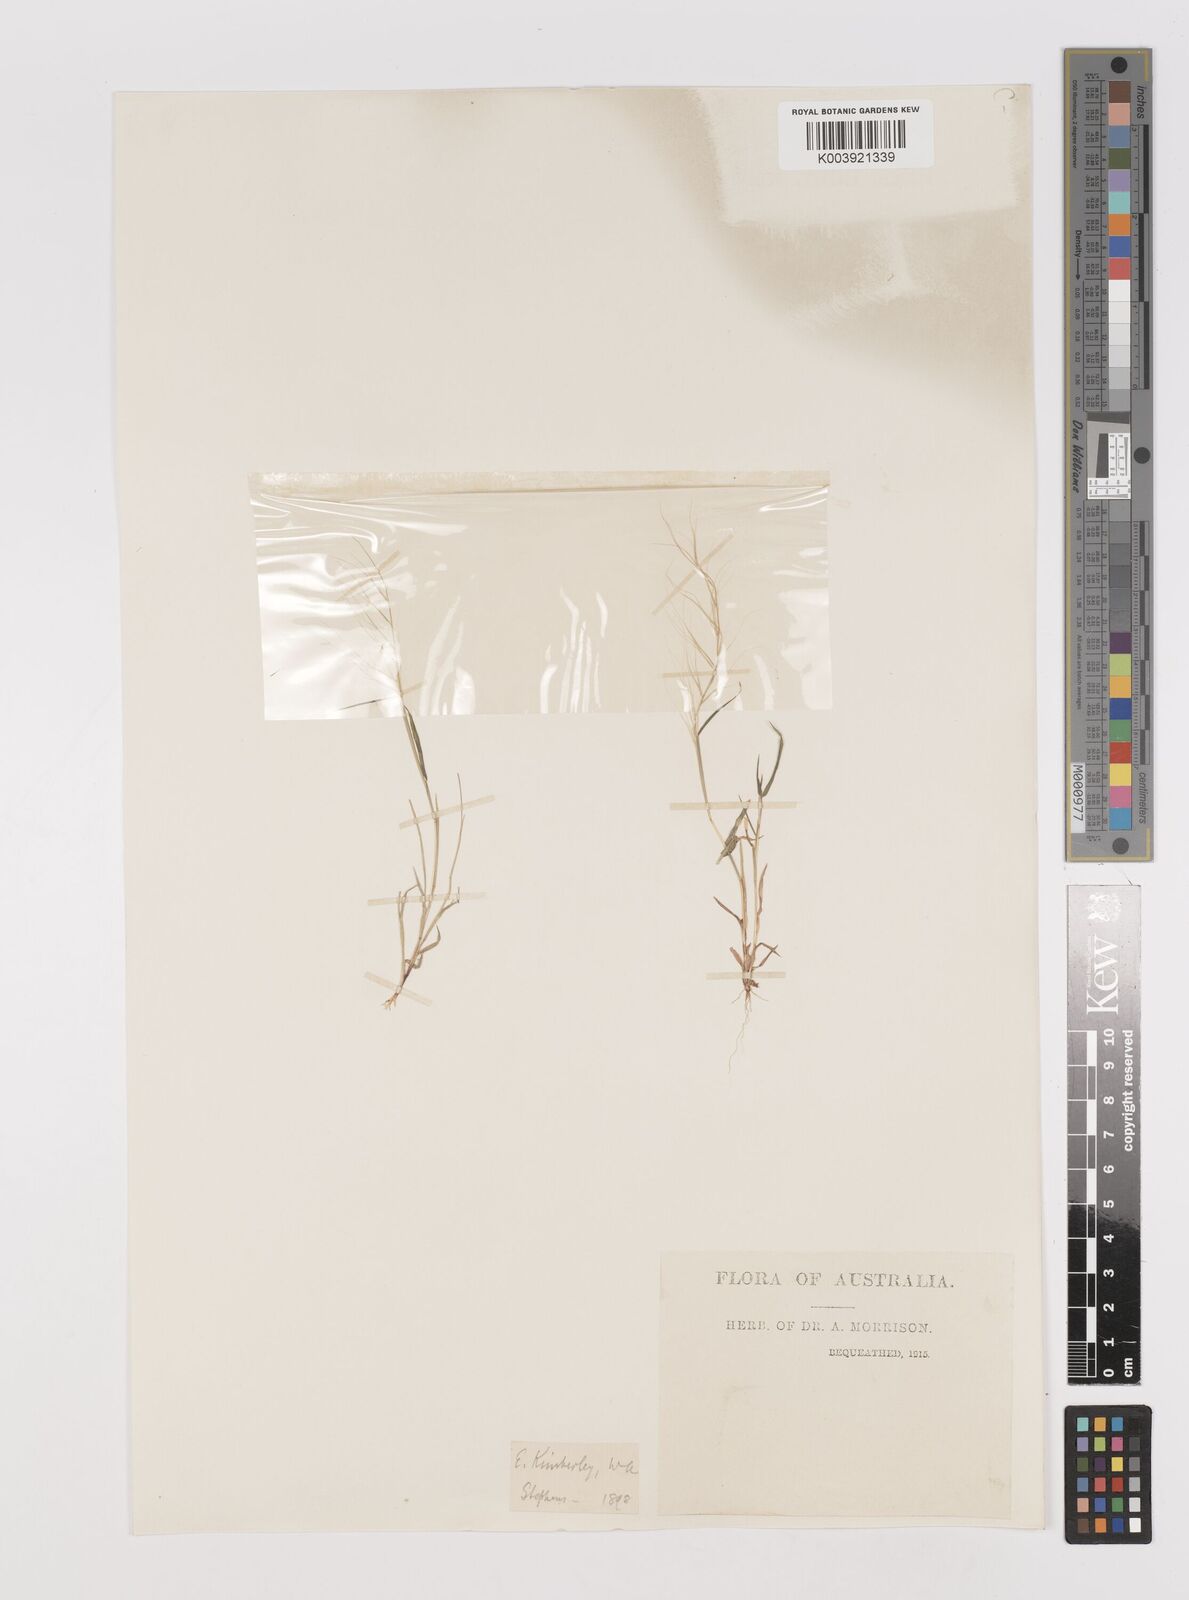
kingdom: Plantae
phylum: Tracheophyta
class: Liliopsida
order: Poales
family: Poaceae
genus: Perotis
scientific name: Perotis rara
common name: Comet grass
